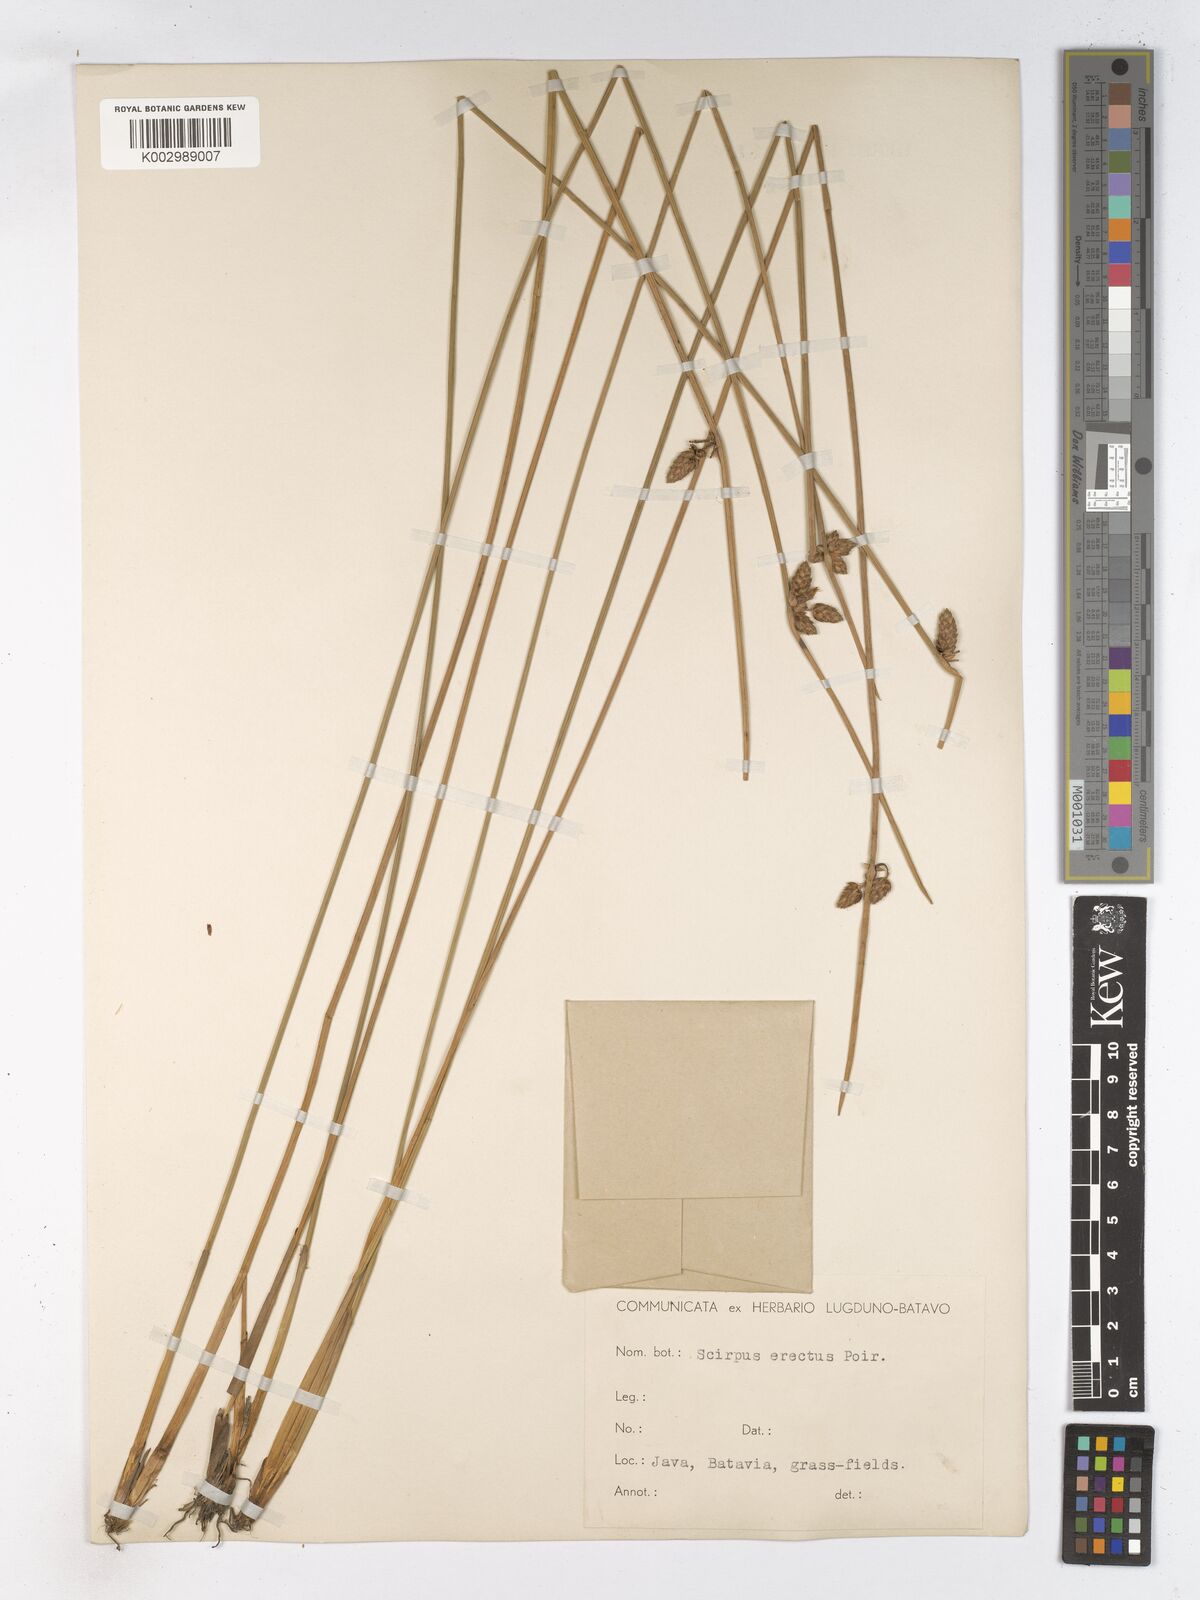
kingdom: Plantae
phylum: Tracheophyta
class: Liliopsida
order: Poales
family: Cyperaceae
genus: Schoenoplectiella
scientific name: Schoenoplectiella juncoides
